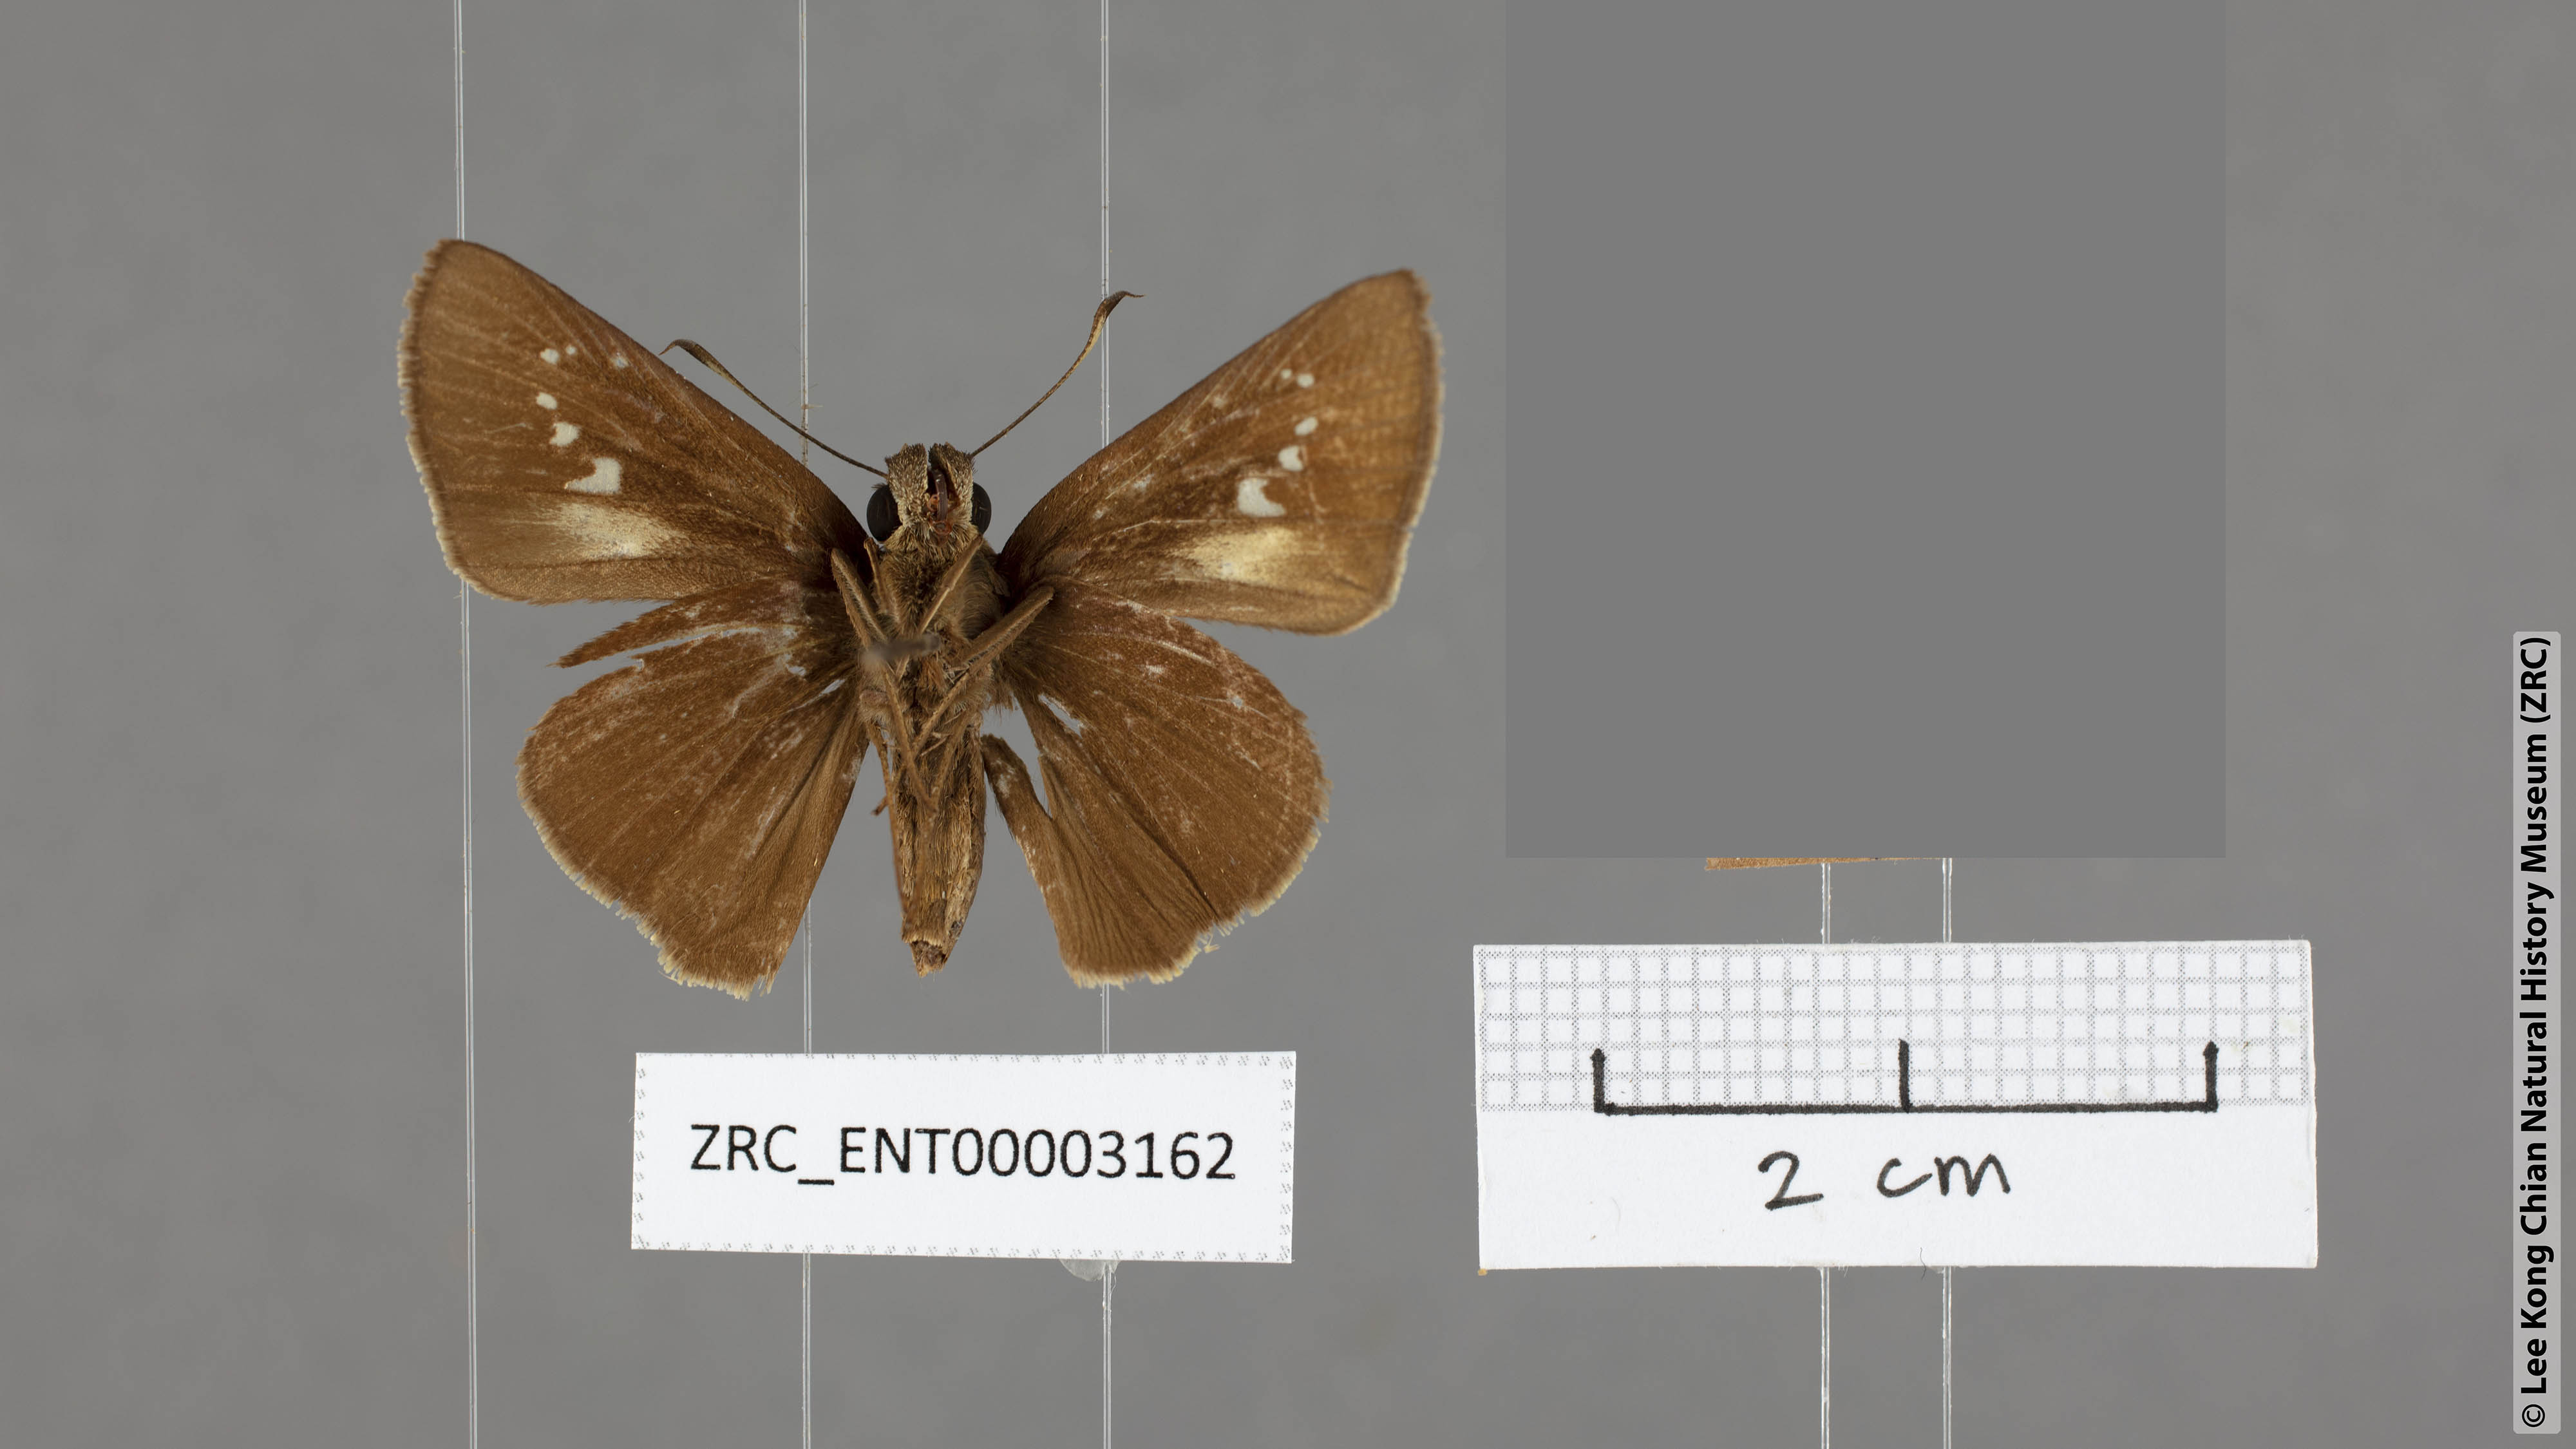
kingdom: Animalia
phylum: Arthropoda
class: Insecta
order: Lepidoptera
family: Hesperiidae
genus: Caltoris
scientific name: Caltoris plebeia
